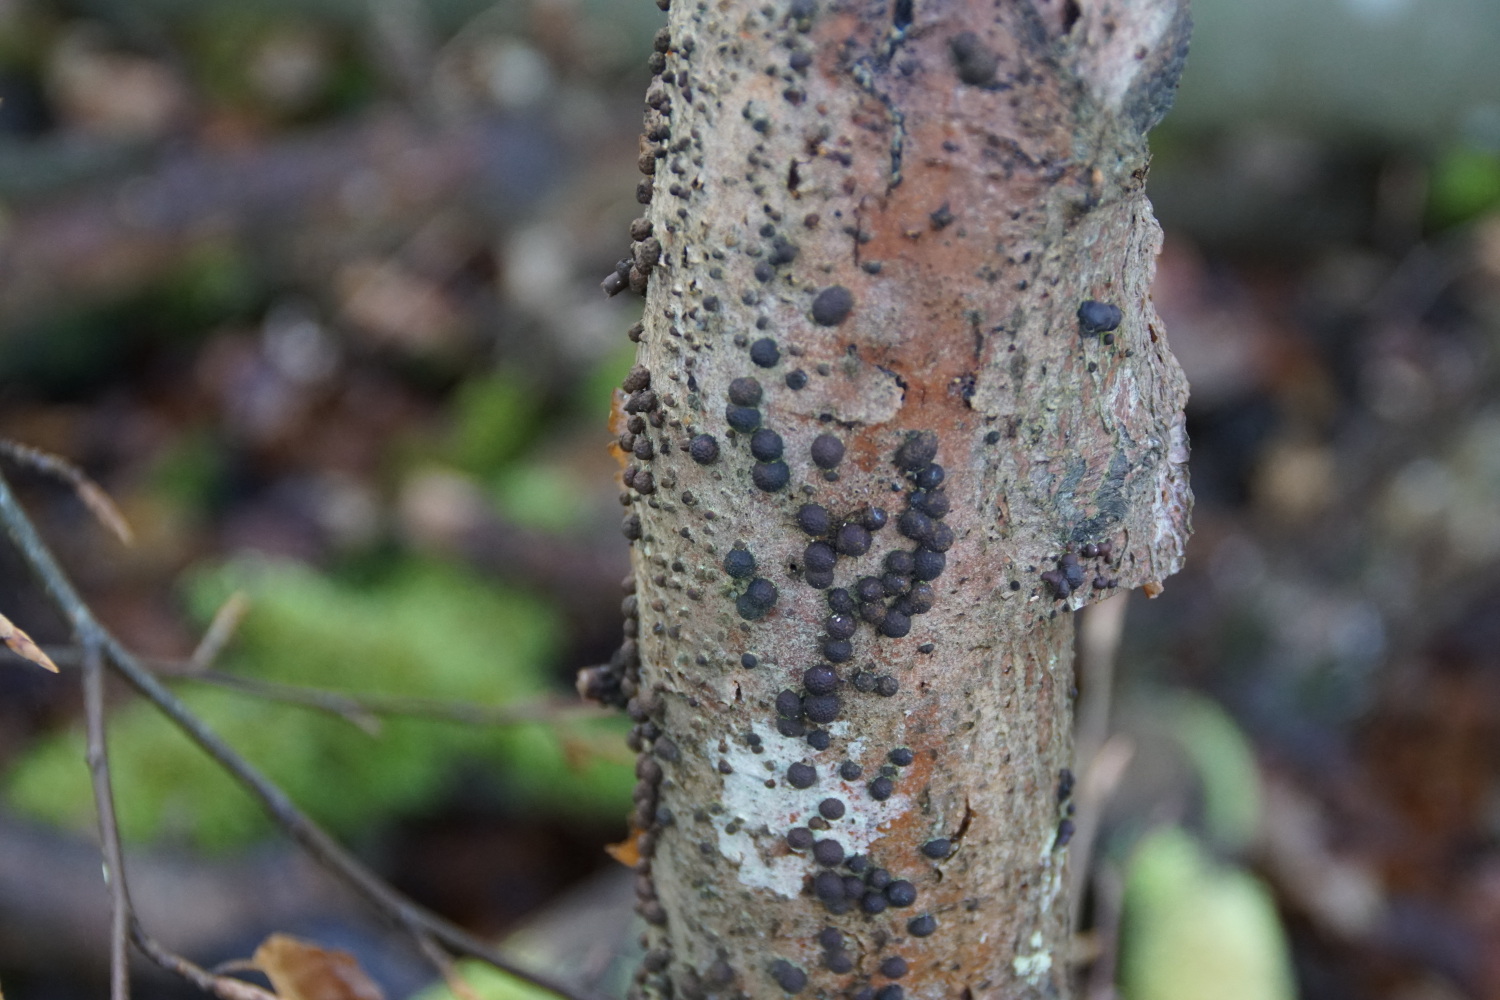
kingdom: Fungi
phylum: Ascomycota
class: Sordariomycetes
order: Xylariales
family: Hypoxylaceae
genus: Hypoxylon
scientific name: Hypoxylon fragiforme
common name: kuljordbær
